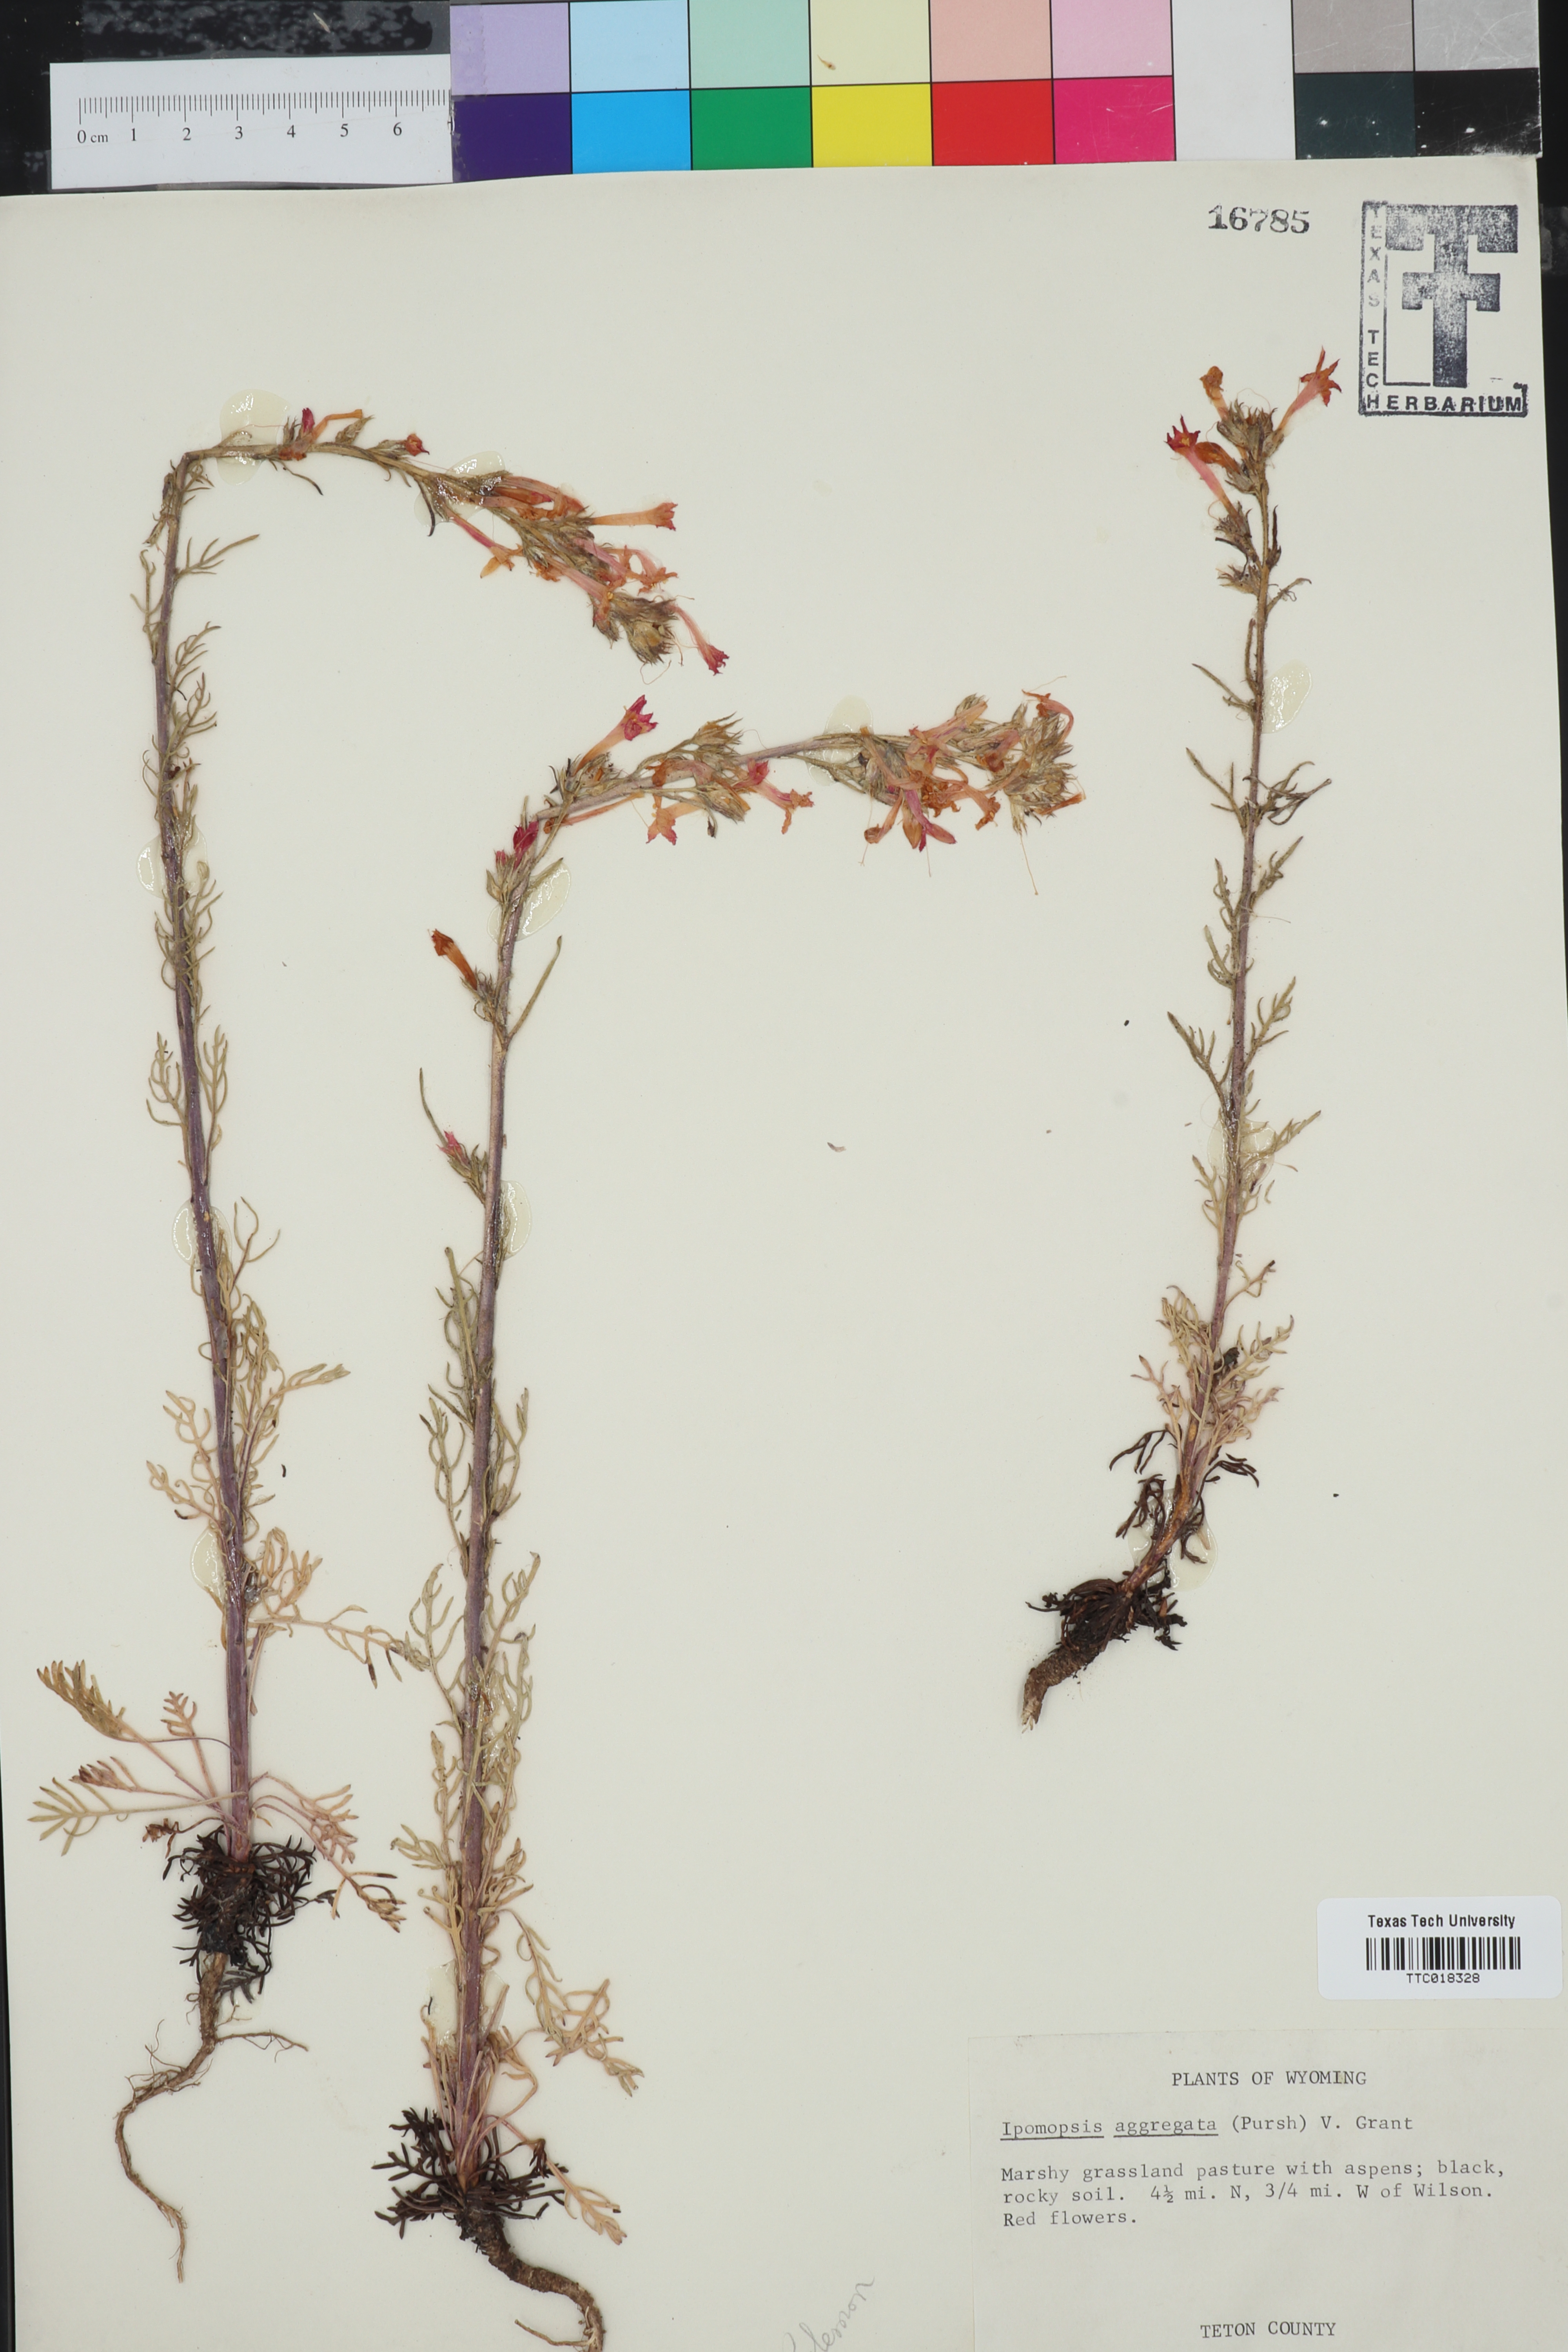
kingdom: Plantae
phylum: Tracheophyta
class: Magnoliopsida
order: Ericales
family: Polemoniaceae
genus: Ipomopsis
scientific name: Ipomopsis aggregata
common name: Scarlet gilia
